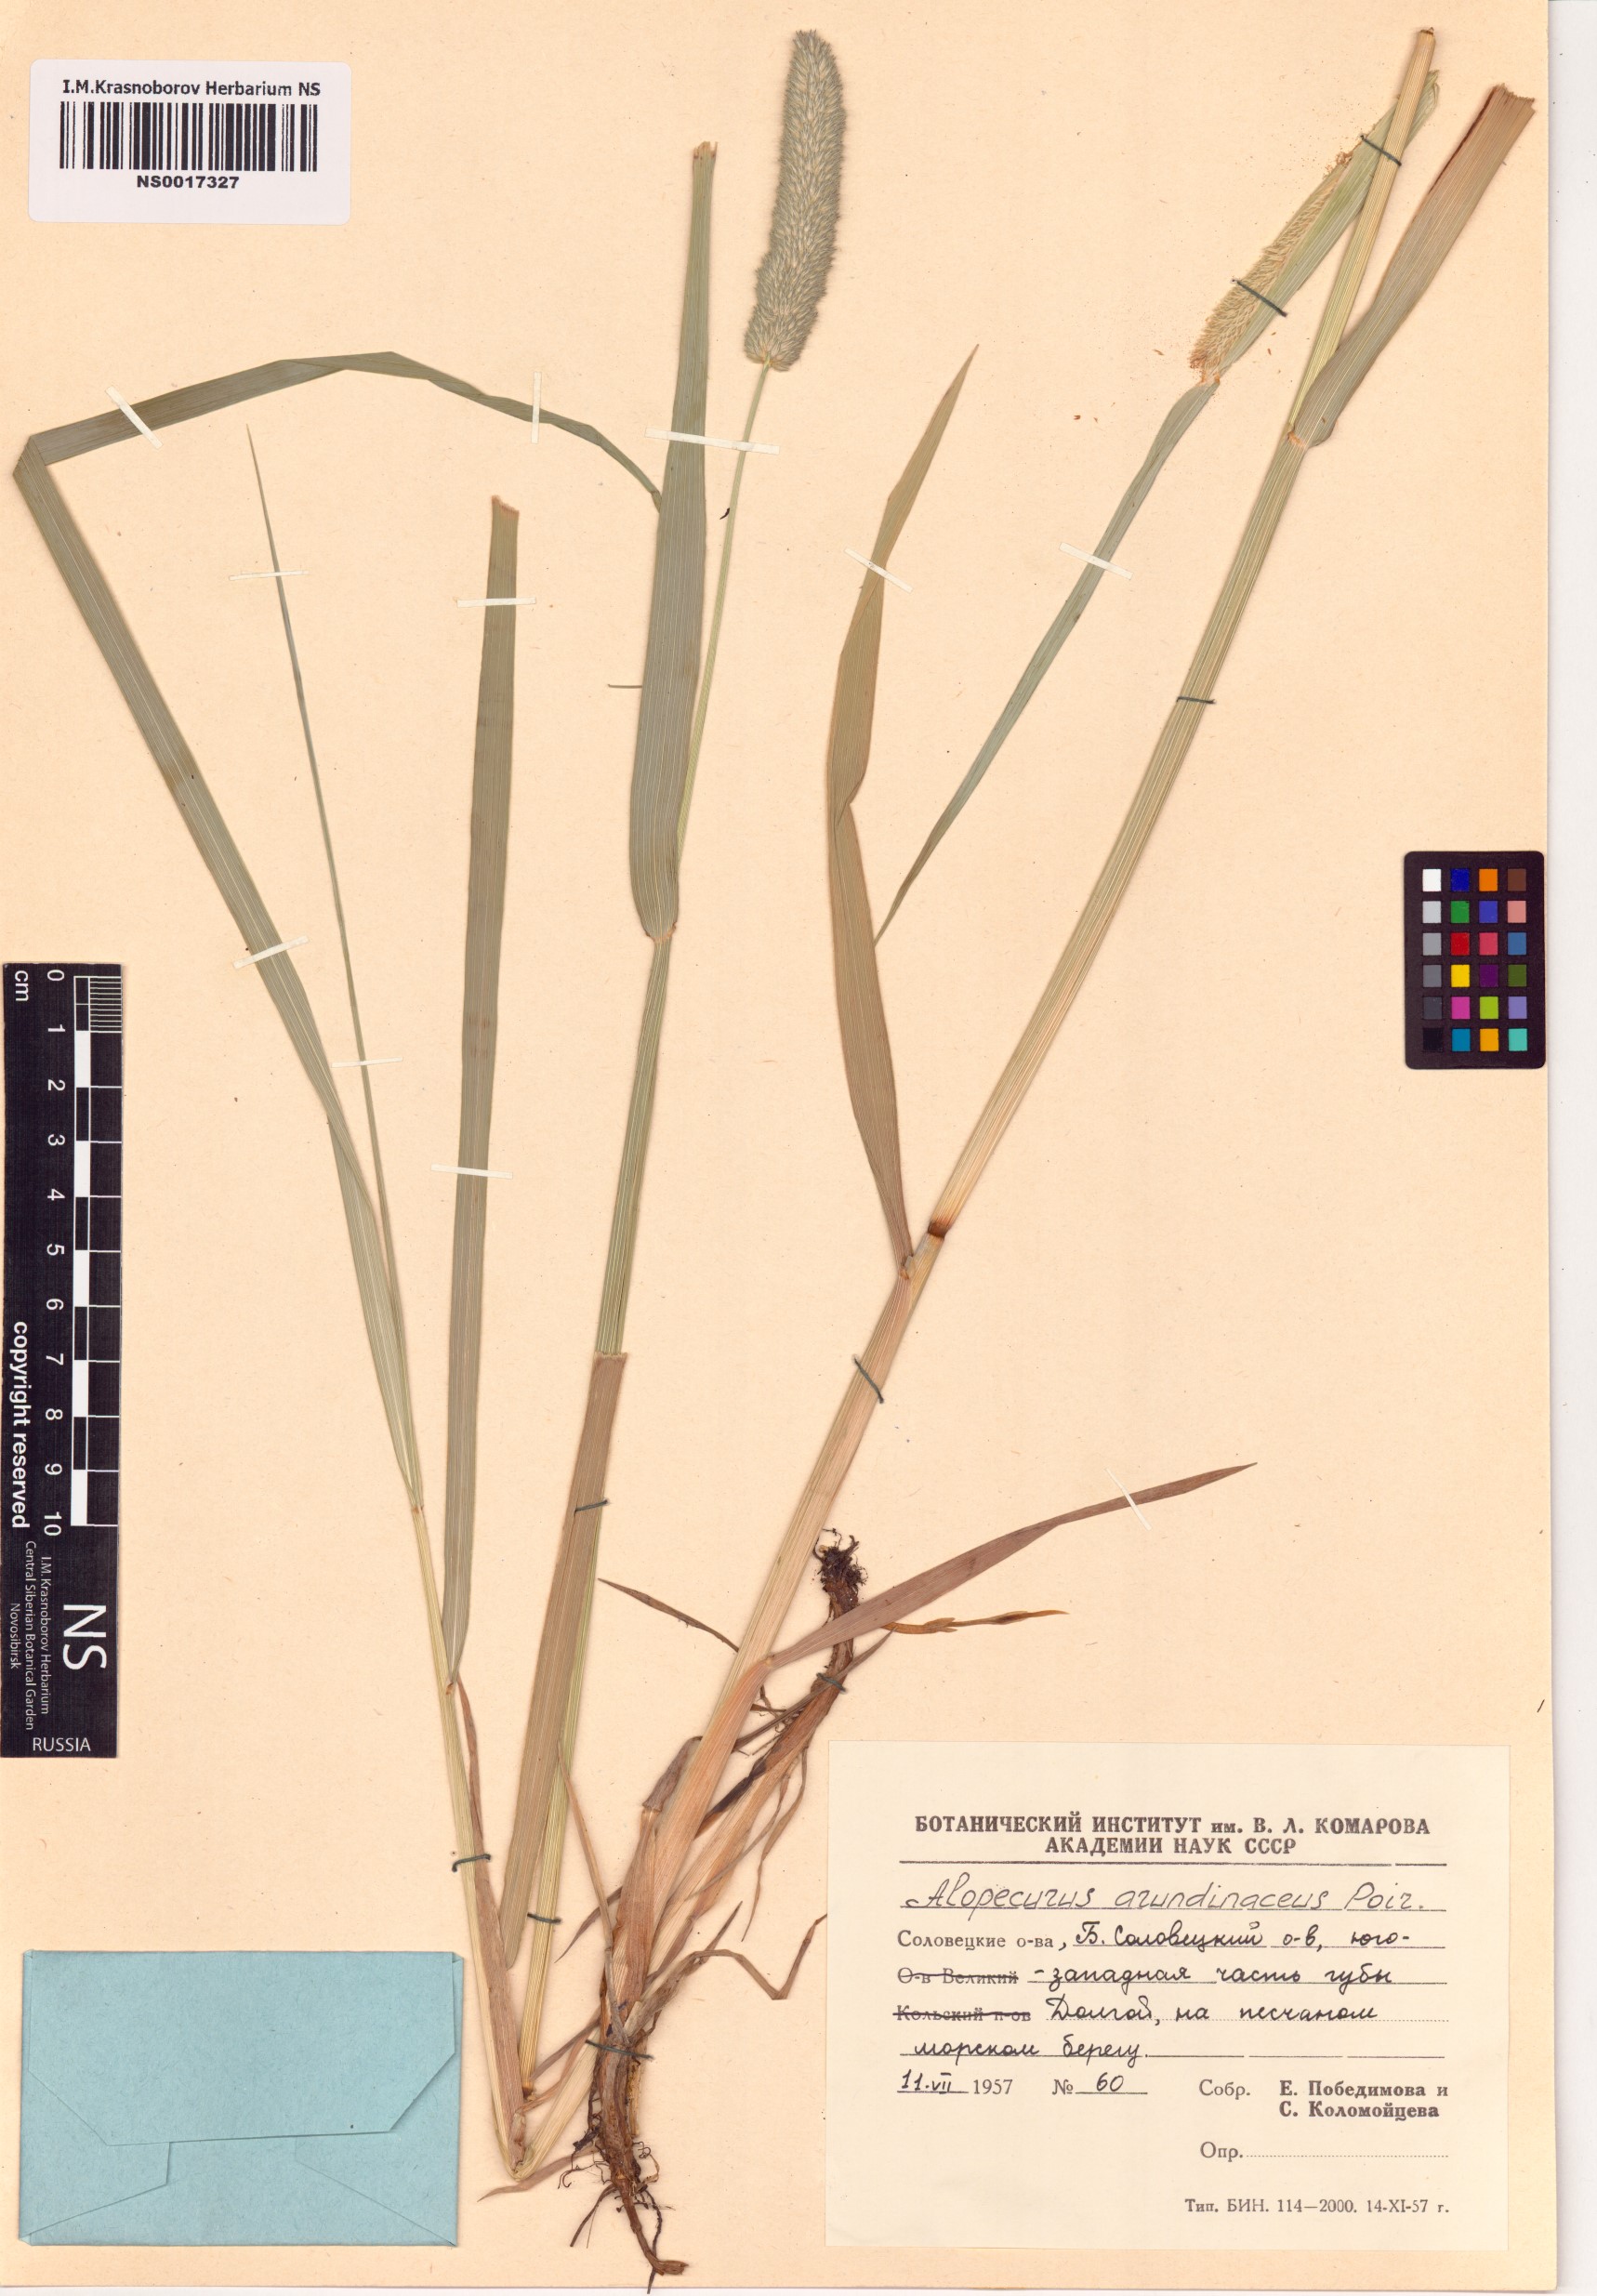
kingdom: Plantae
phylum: Tracheophyta
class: Liliopsida
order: Poales
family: Poaceae
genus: Alopecurus
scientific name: Alopecurus arundinaceus
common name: Creeping meadow foxtail
